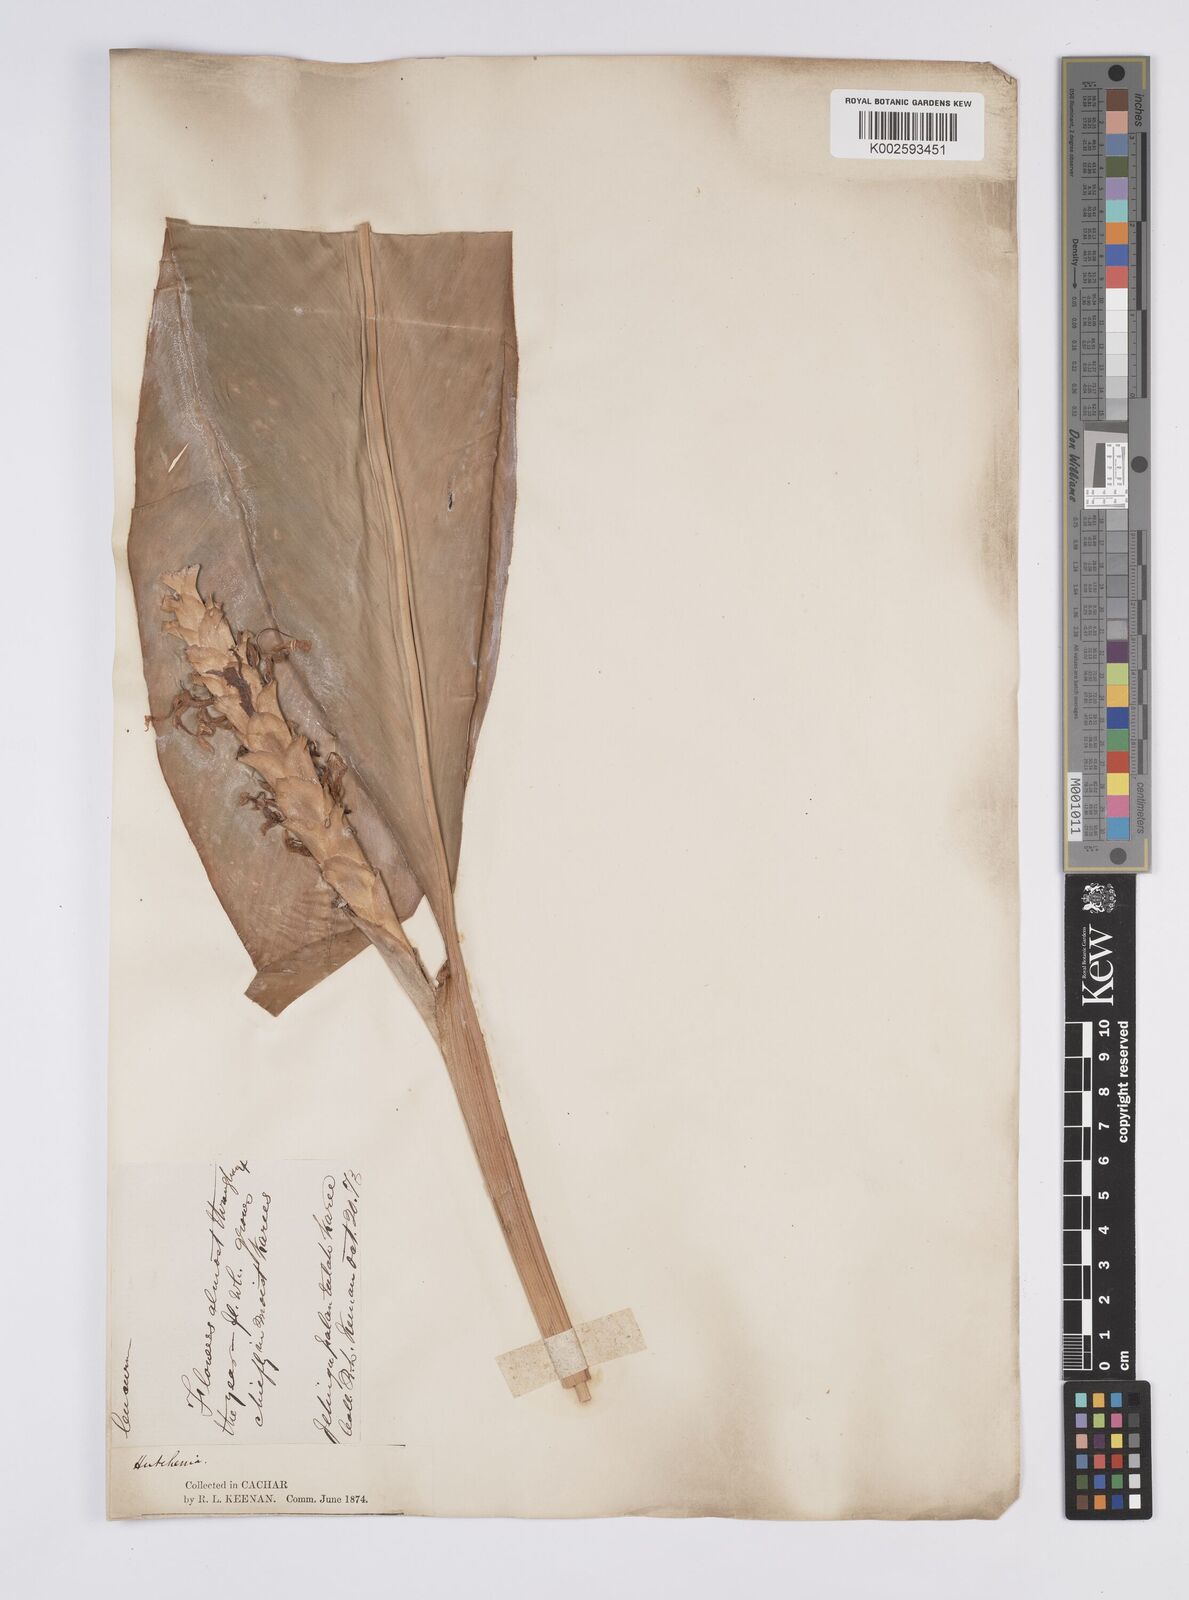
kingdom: Plantae
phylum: Tracheophyta
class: Liliopsida
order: Zingiberales
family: Zingiberaceae
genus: Larsenianthus
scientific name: Larsenianthus careyanus
